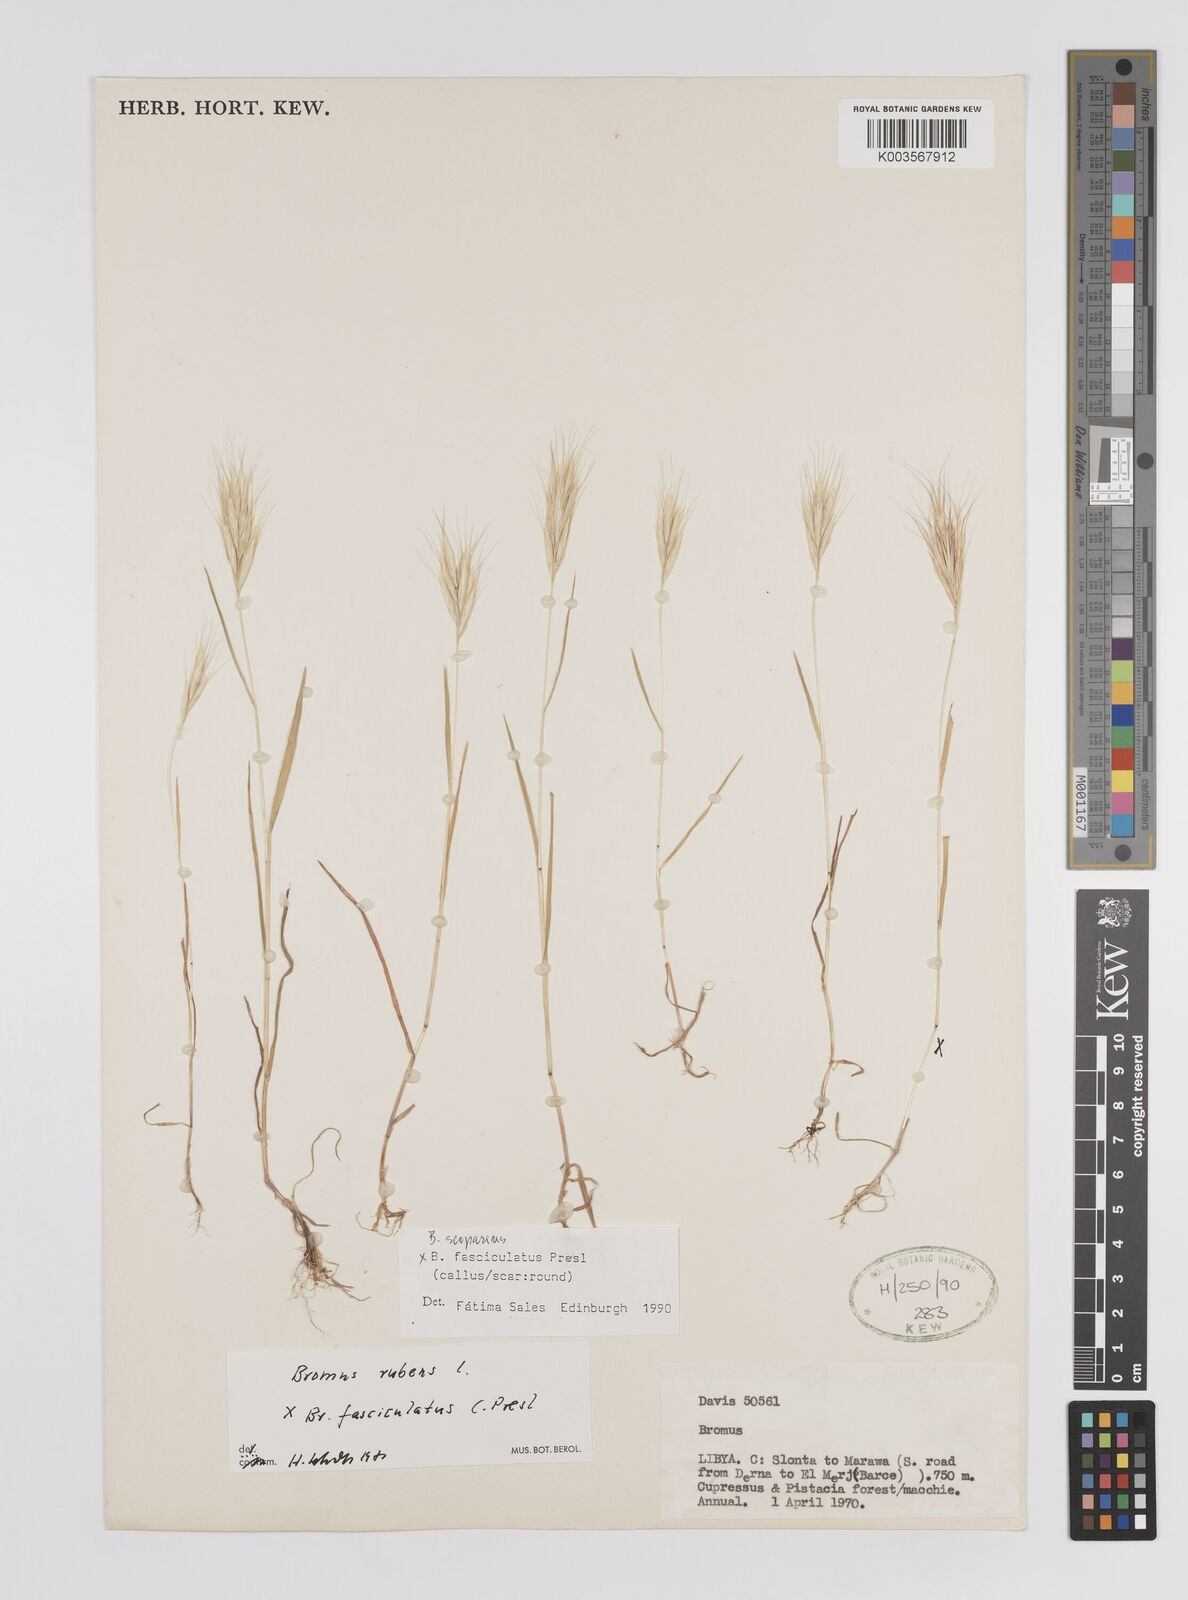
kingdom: Plantae
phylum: Tracheophyta
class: Liliopsida
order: Poales
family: Poaceae
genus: Bromus
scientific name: Bromus scoparius
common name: Broom brome
